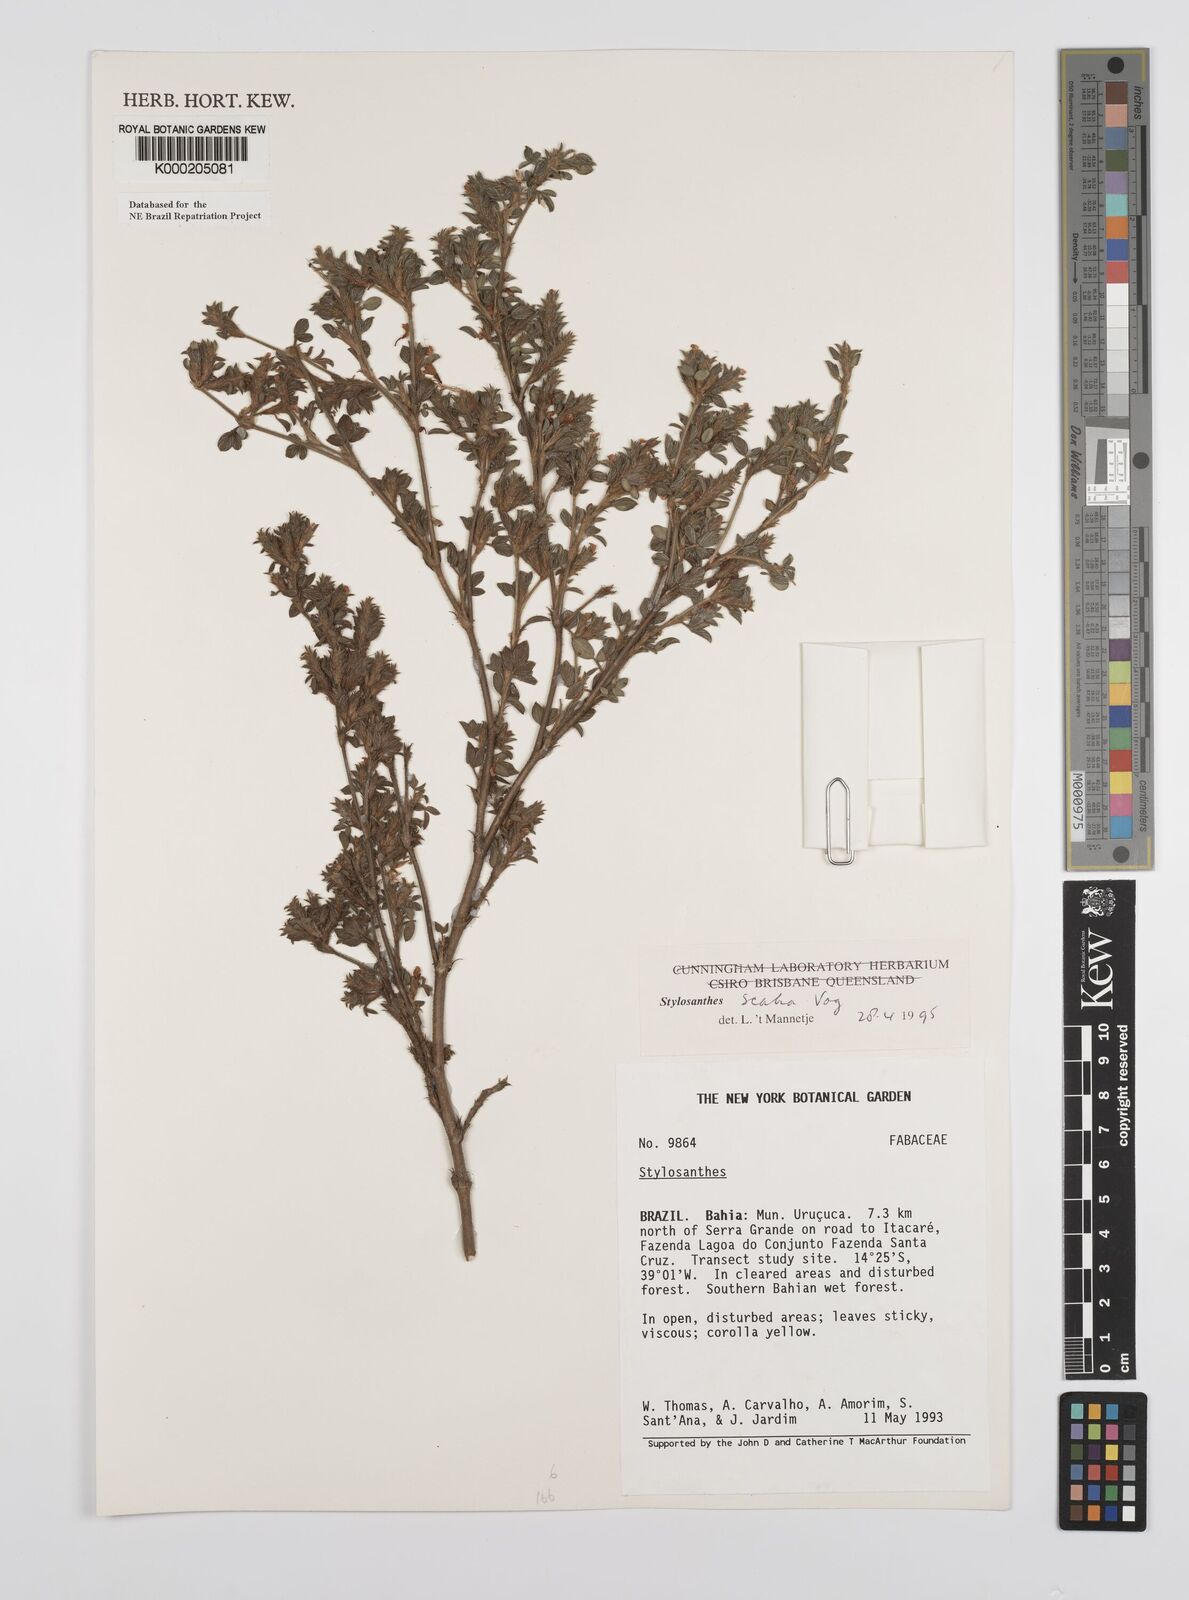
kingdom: Plantae
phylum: Tracheophyta
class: Magnoliopsida
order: Fabales
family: Fabaceae
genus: Stylosanthes
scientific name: Stylosanthes scabra
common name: Pencilflower
